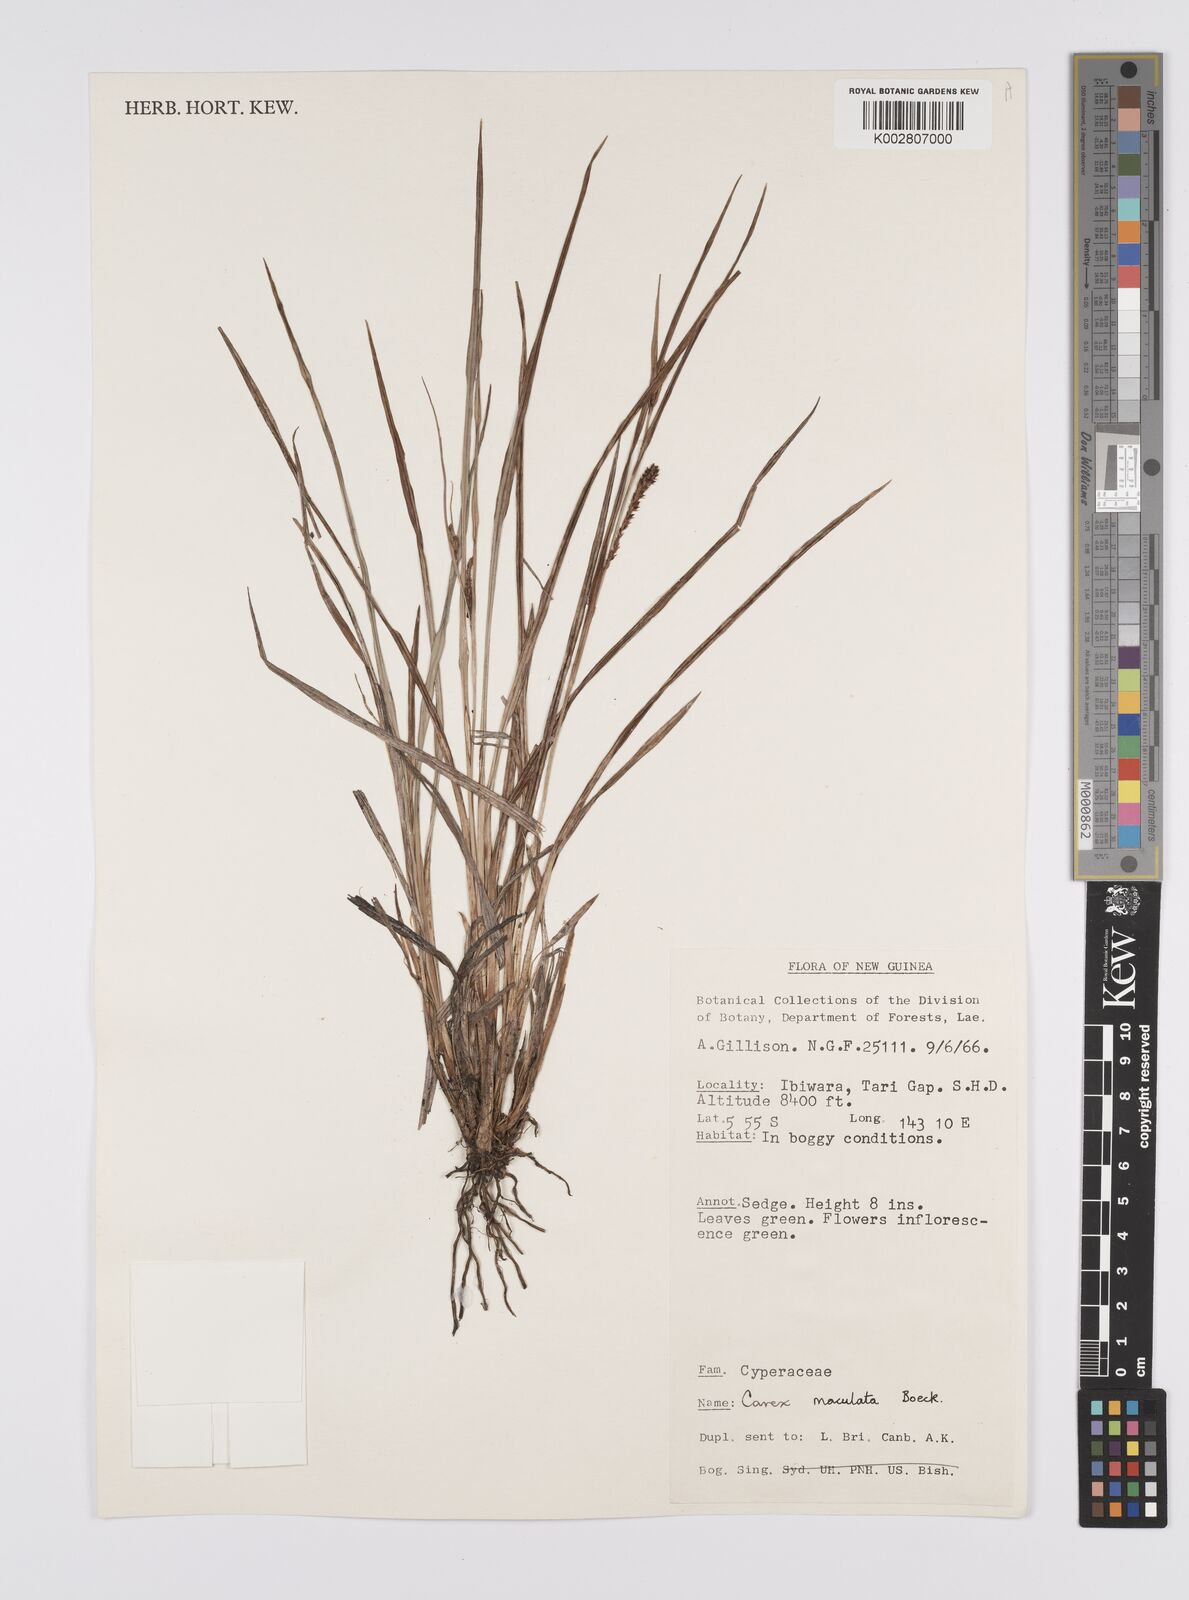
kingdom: Plantae
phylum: Tracheophyta
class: Liliopsida
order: Poales
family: Cyperaceae
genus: Carex
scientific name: Carex maculata
